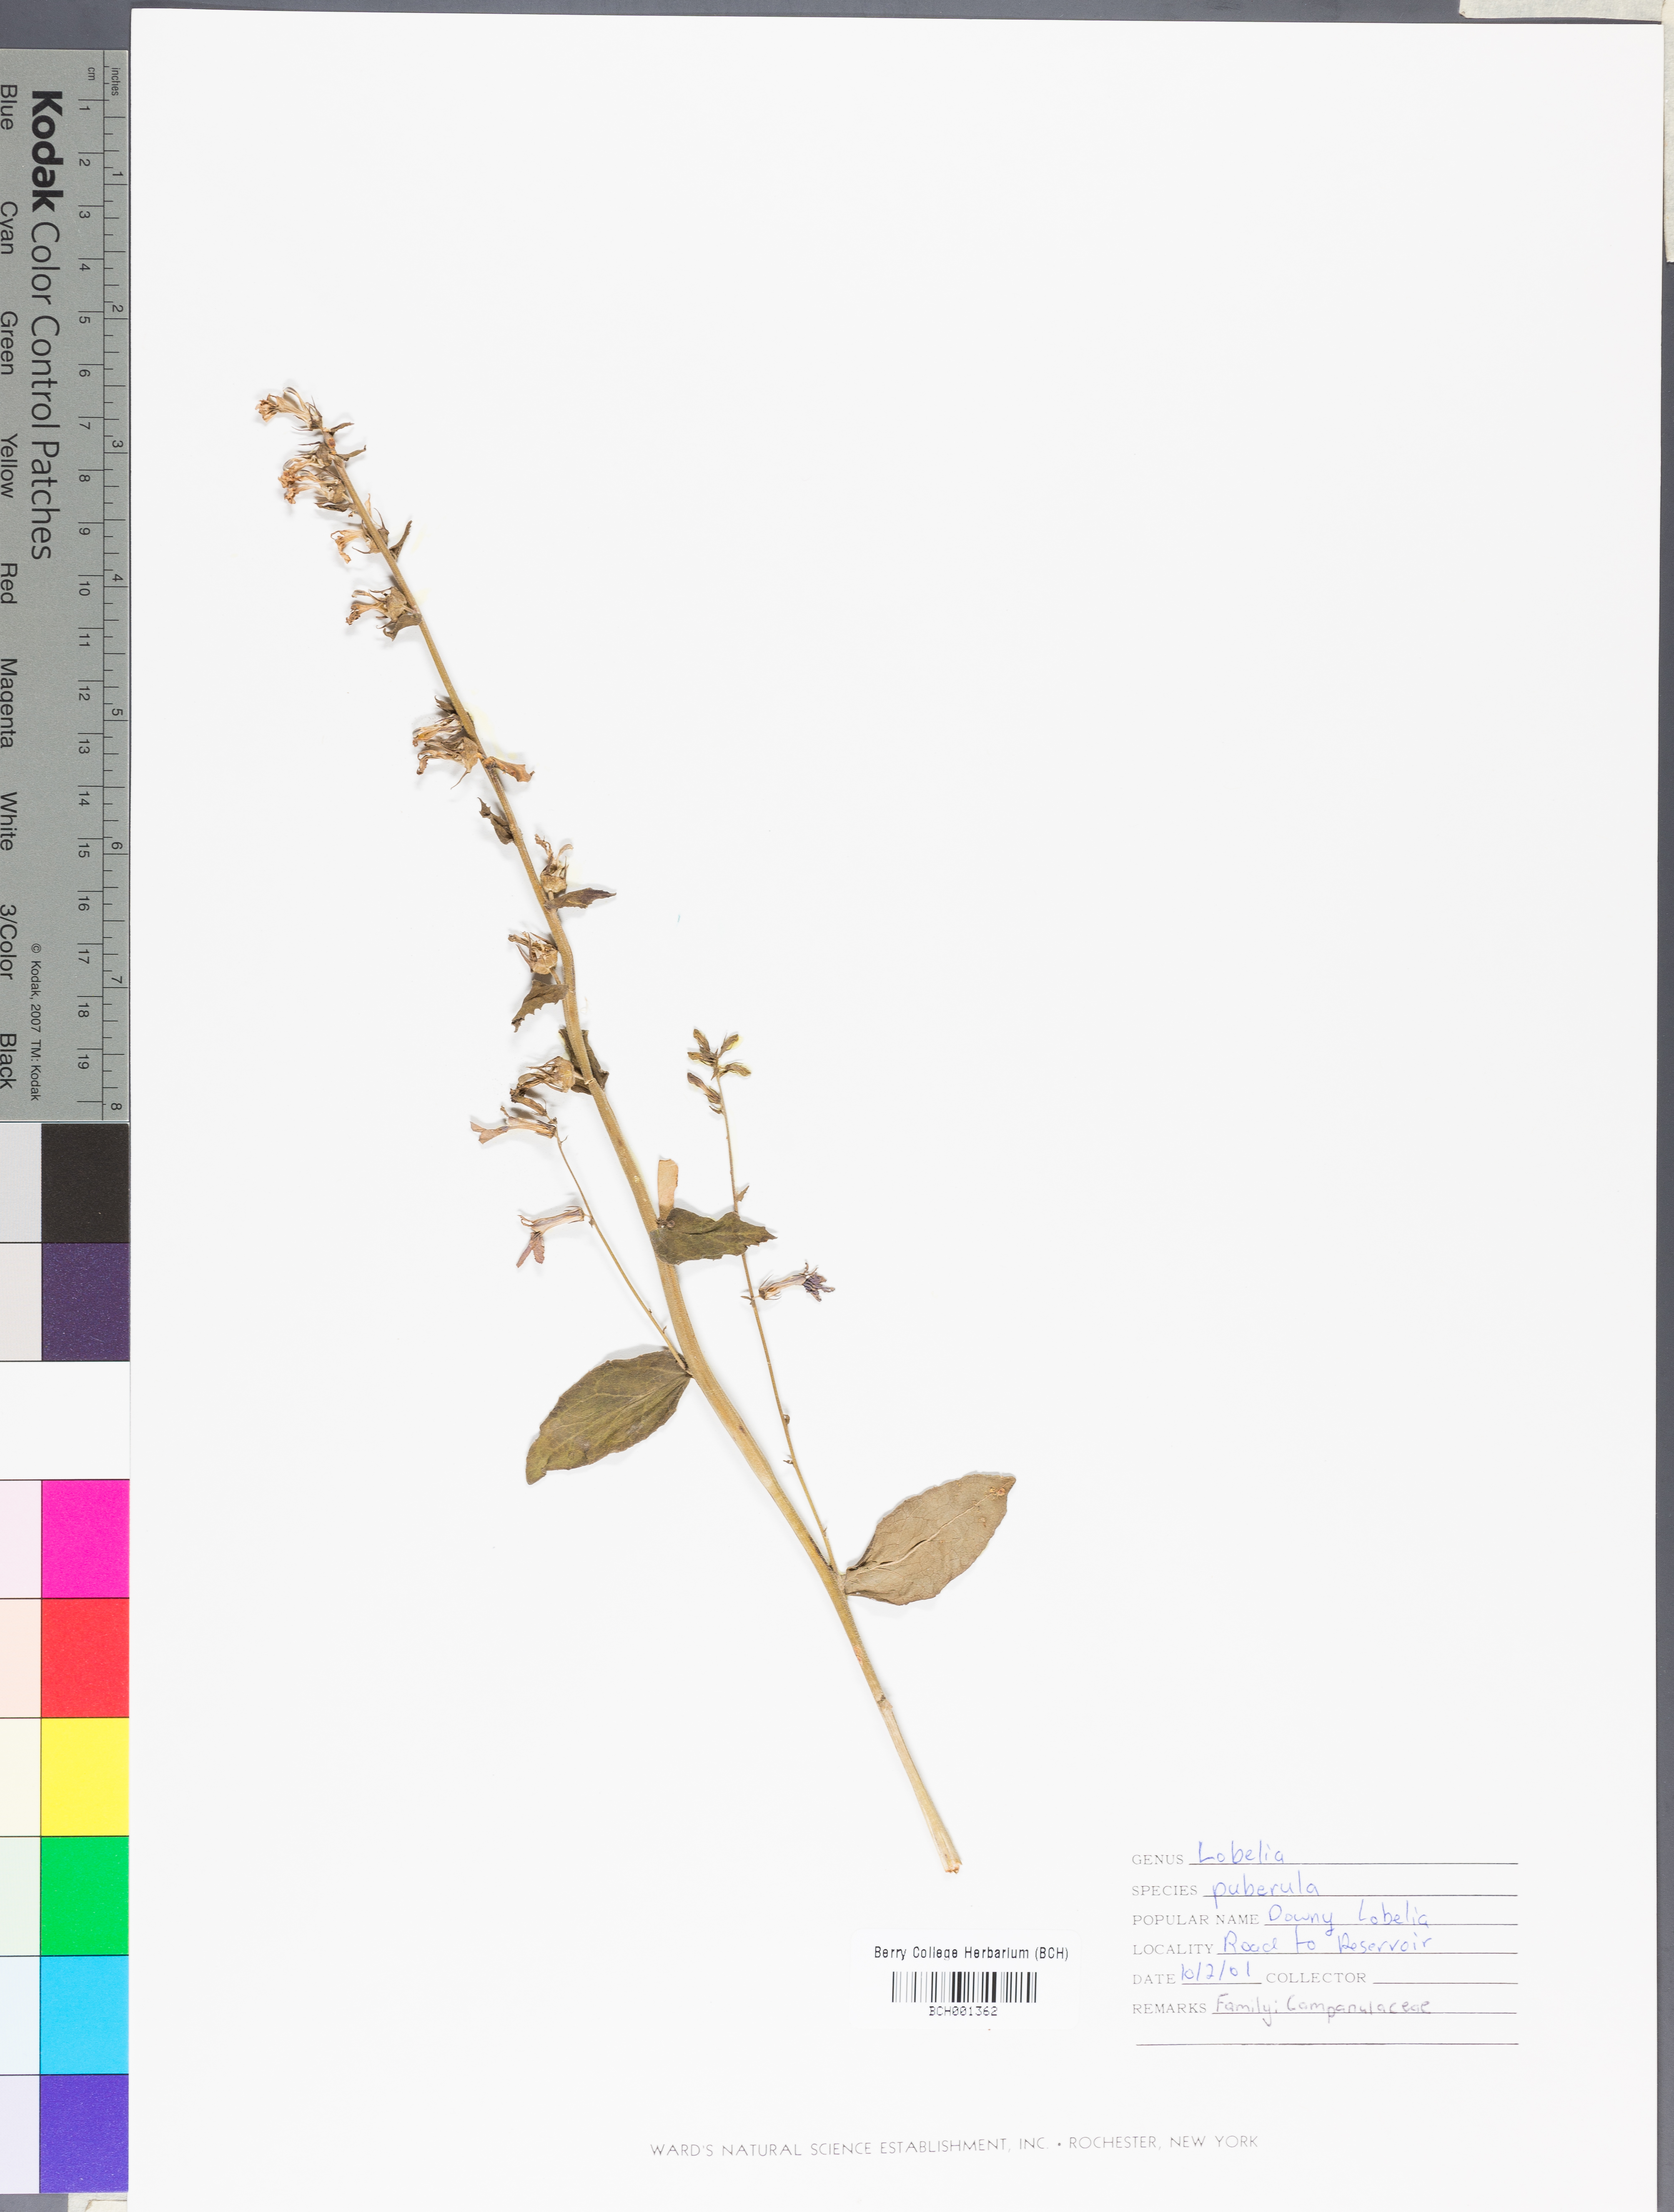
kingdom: Plantae
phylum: Tracheophyta
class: Magnoliopsida
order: Asterales
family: Campanulaceae
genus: Lobelia
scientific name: Lobelia puberula
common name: Purple dewdrop
